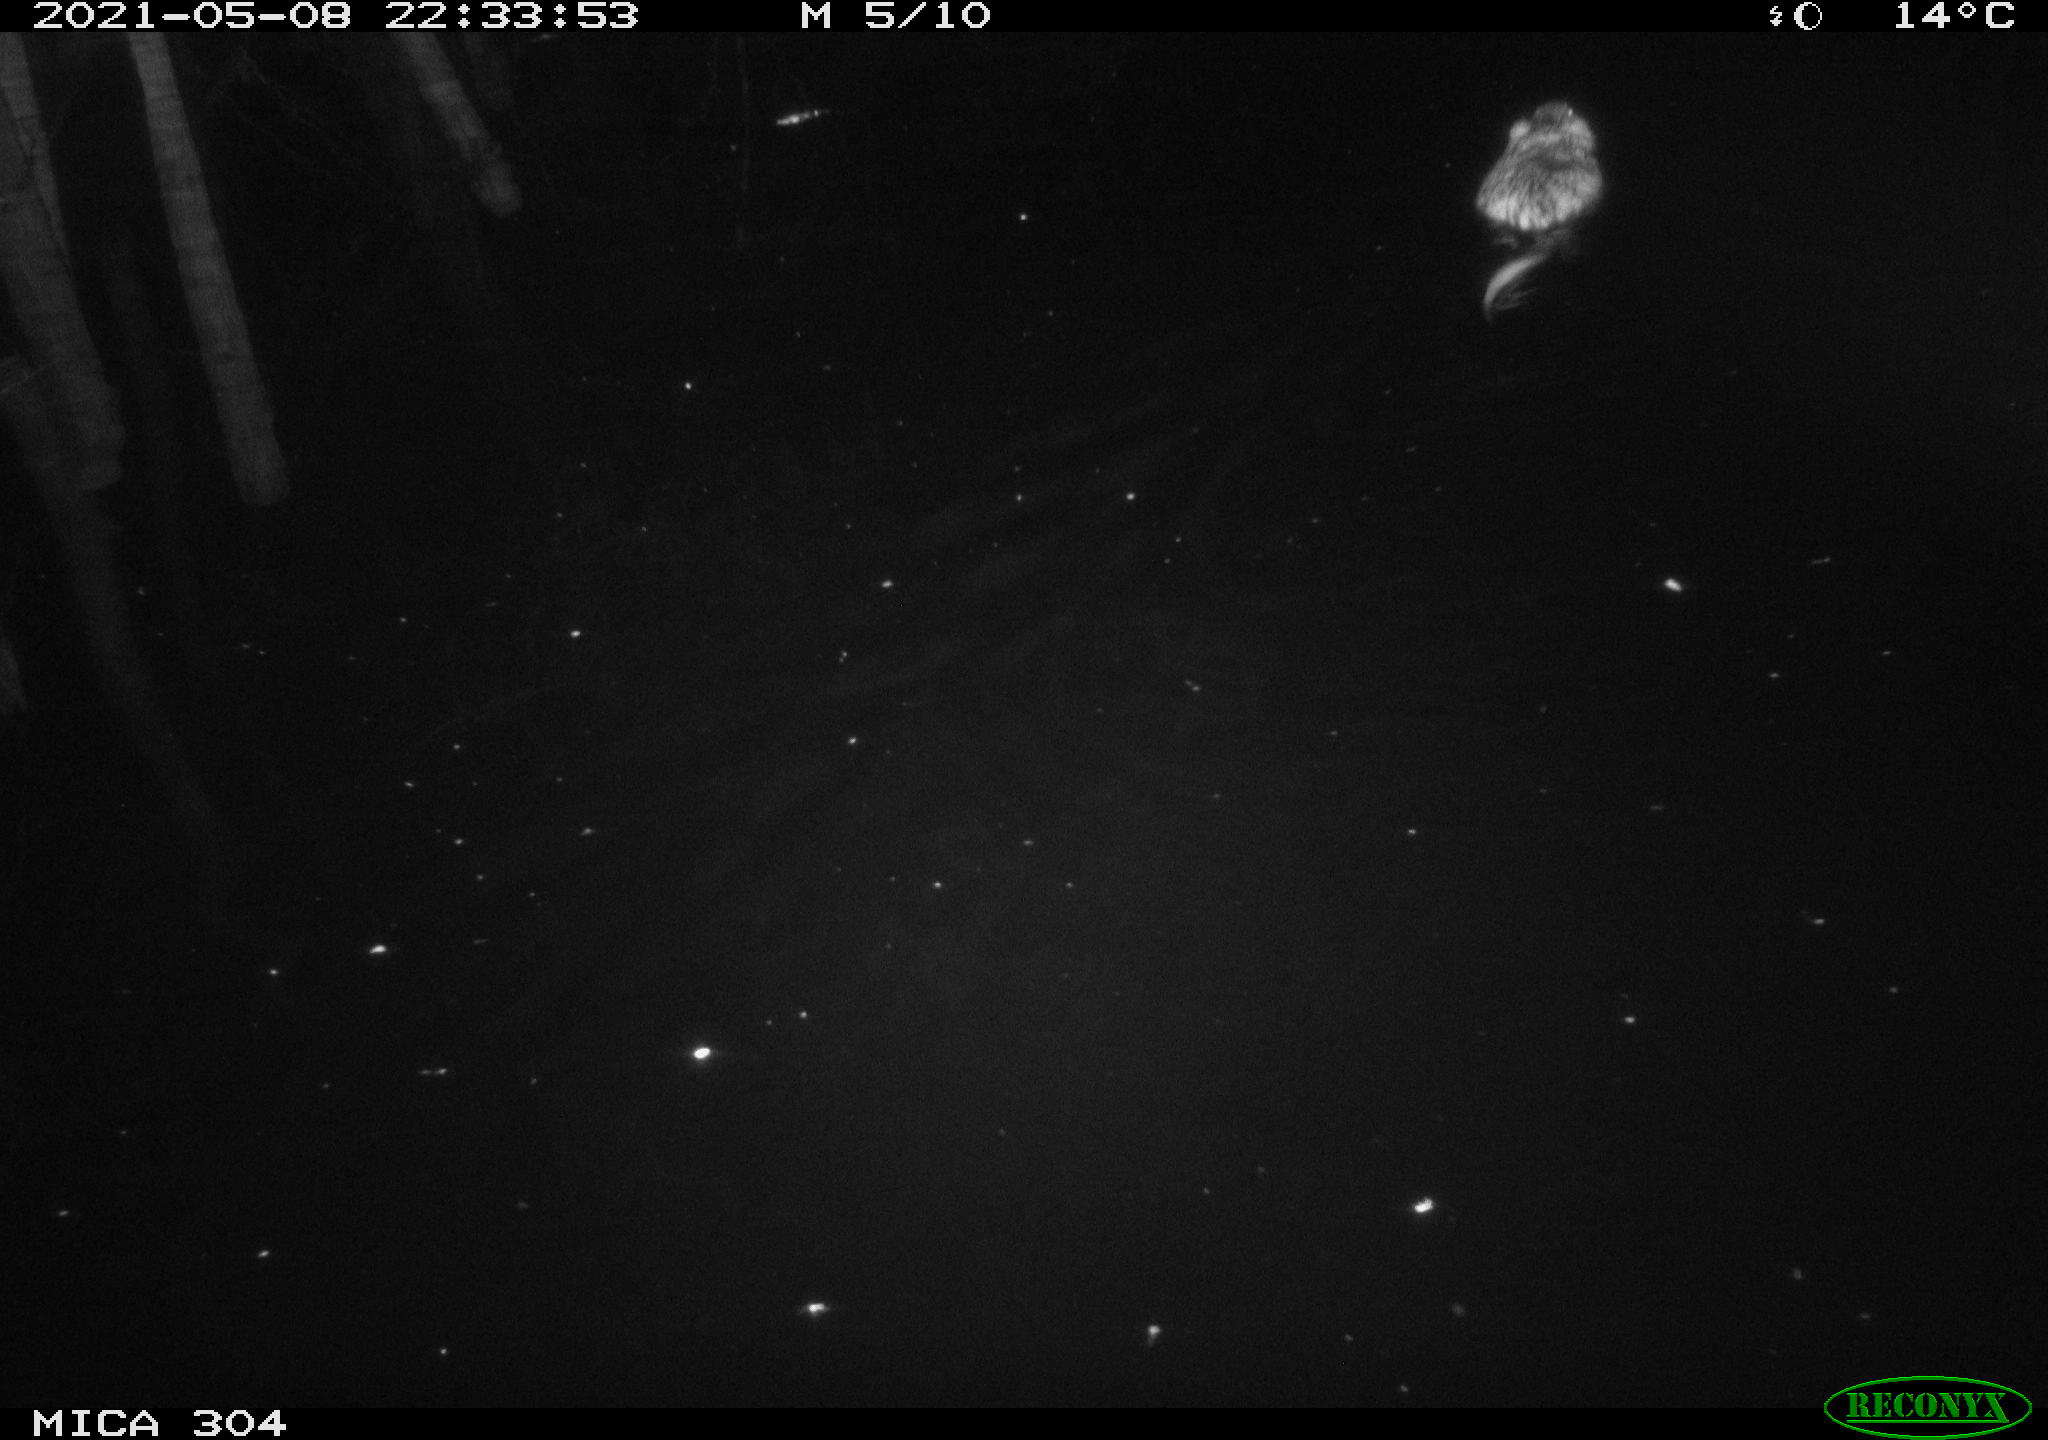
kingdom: Animalia
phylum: Chordata
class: Mammalia
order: Rodentia
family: Cricetidae
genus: Ondatra
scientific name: Ondatra zibethicus
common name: Muskrat
